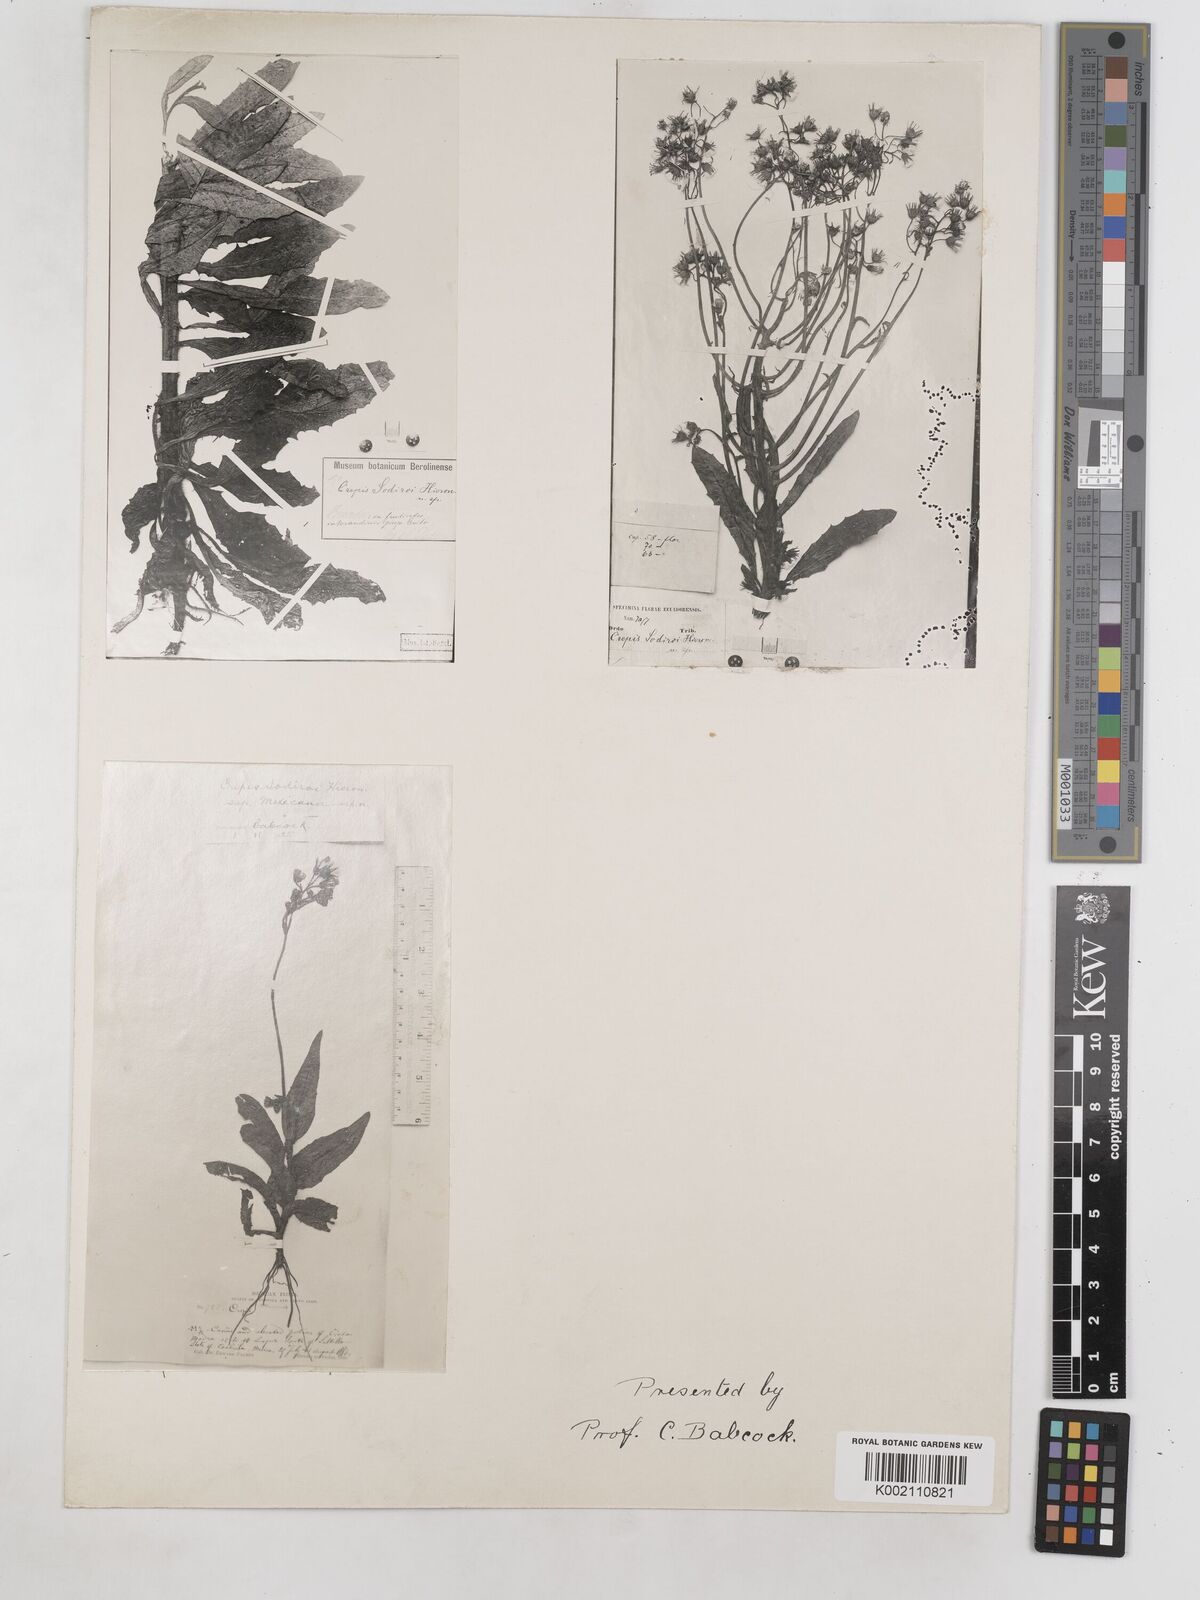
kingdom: Plantae
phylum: Tracheophyta
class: Magnoliopsida
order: Asterales
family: Asteraceae
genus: Crepis
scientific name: Crepis
